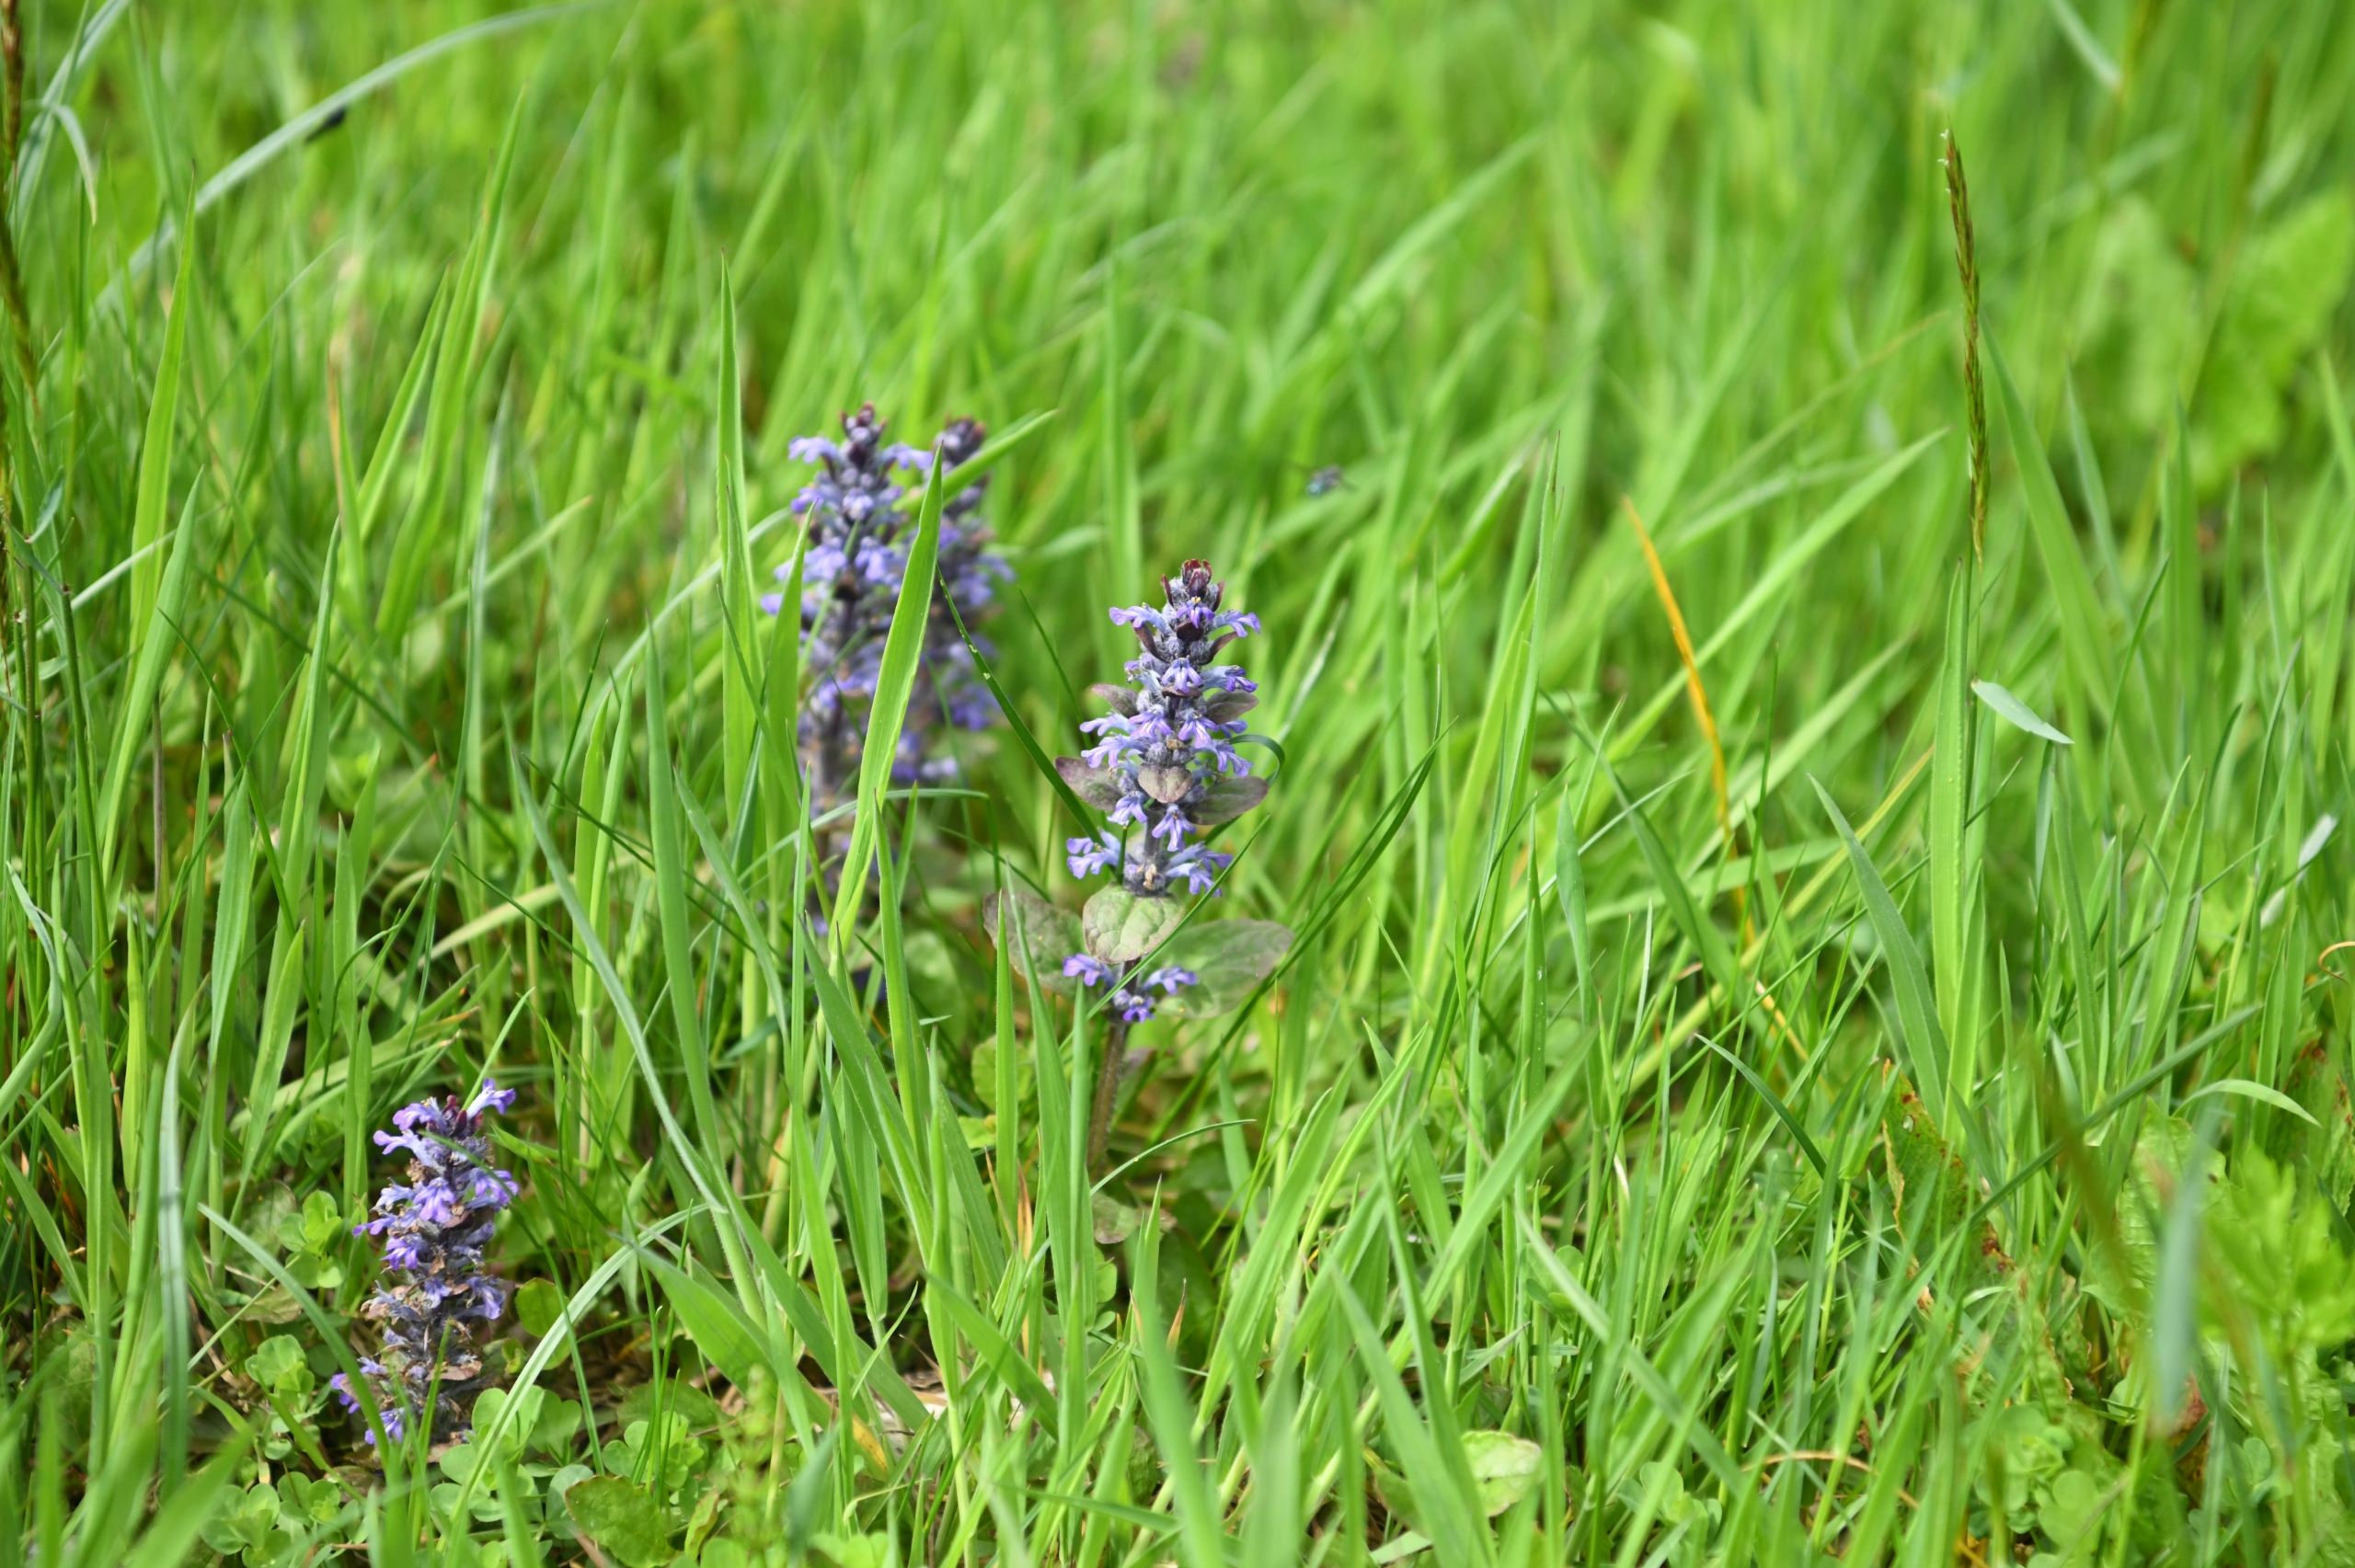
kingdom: Plantae
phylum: Tracheophyta
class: Magnoliopsida
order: Lamiales
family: Lamiaceae
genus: Ajuga
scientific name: Ajuga reptans
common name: Krybende læbeløs
